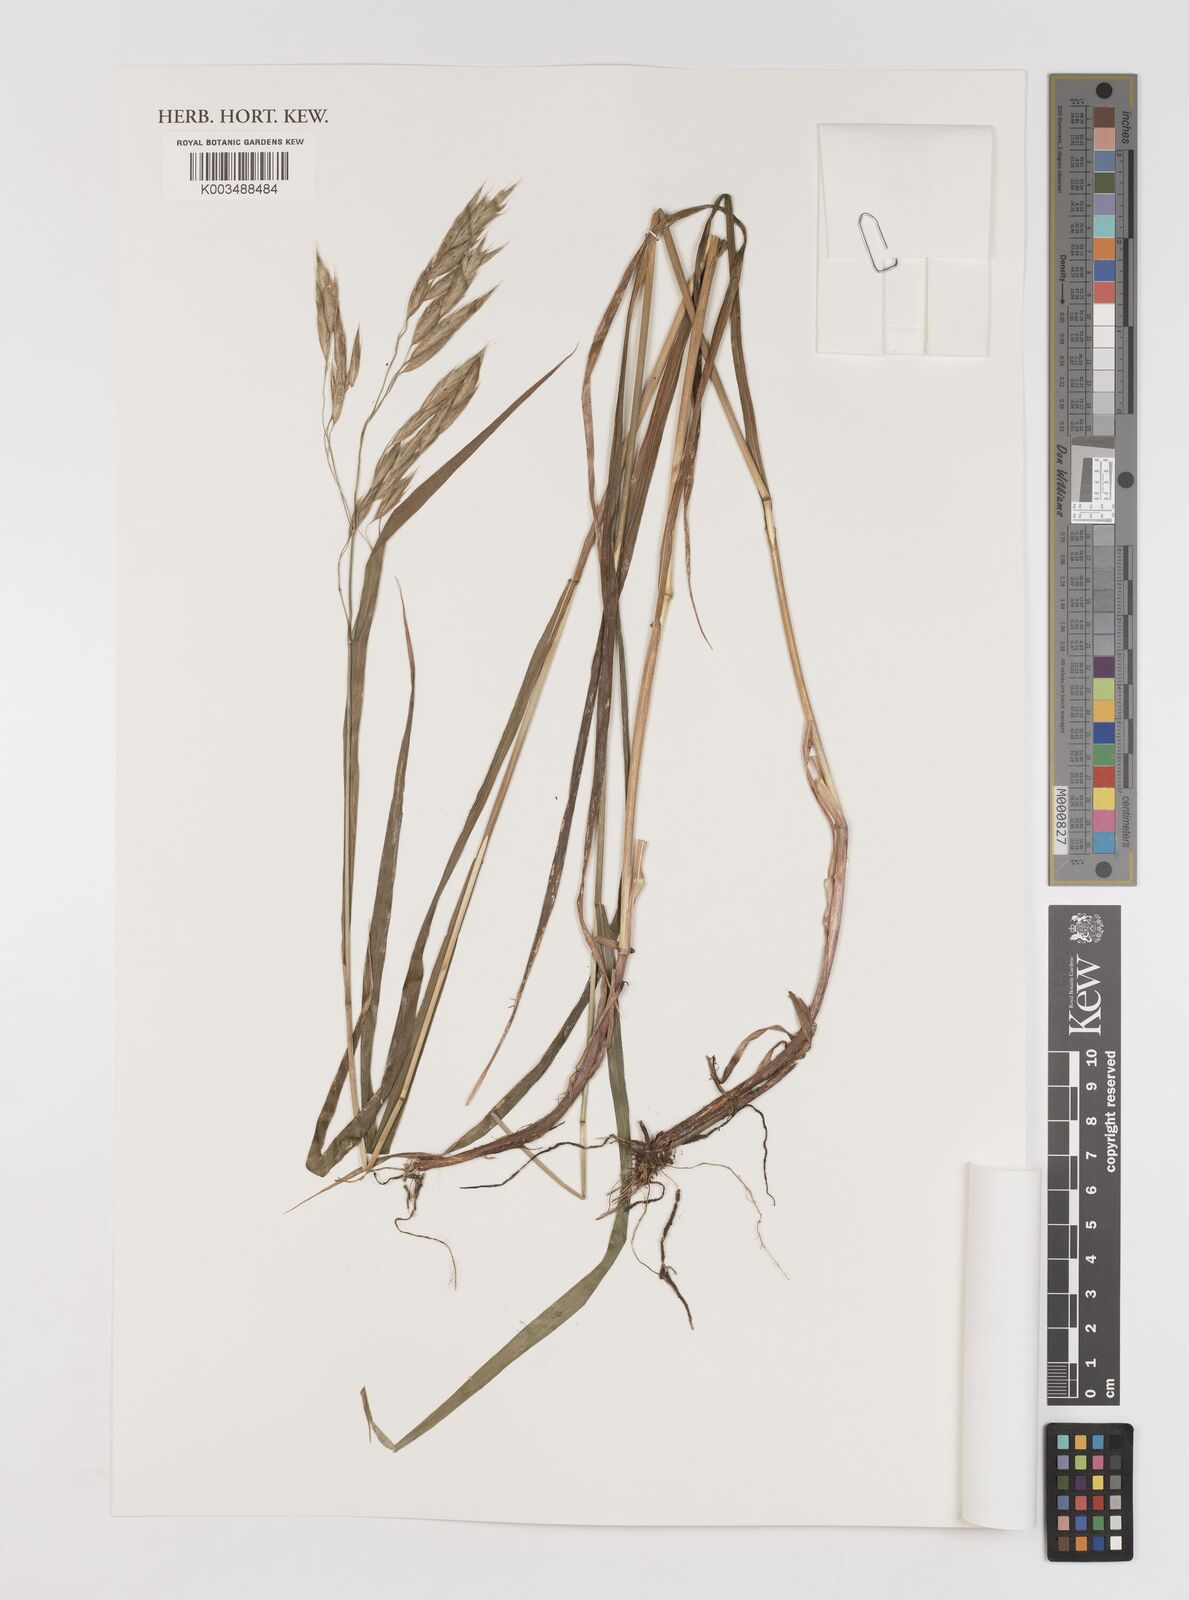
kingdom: Plantae
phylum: Tracheophyta
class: Liliopsida
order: Poales
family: Poaceae
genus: Bromus
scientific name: Bromus richardsonii
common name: Richardson's brome
